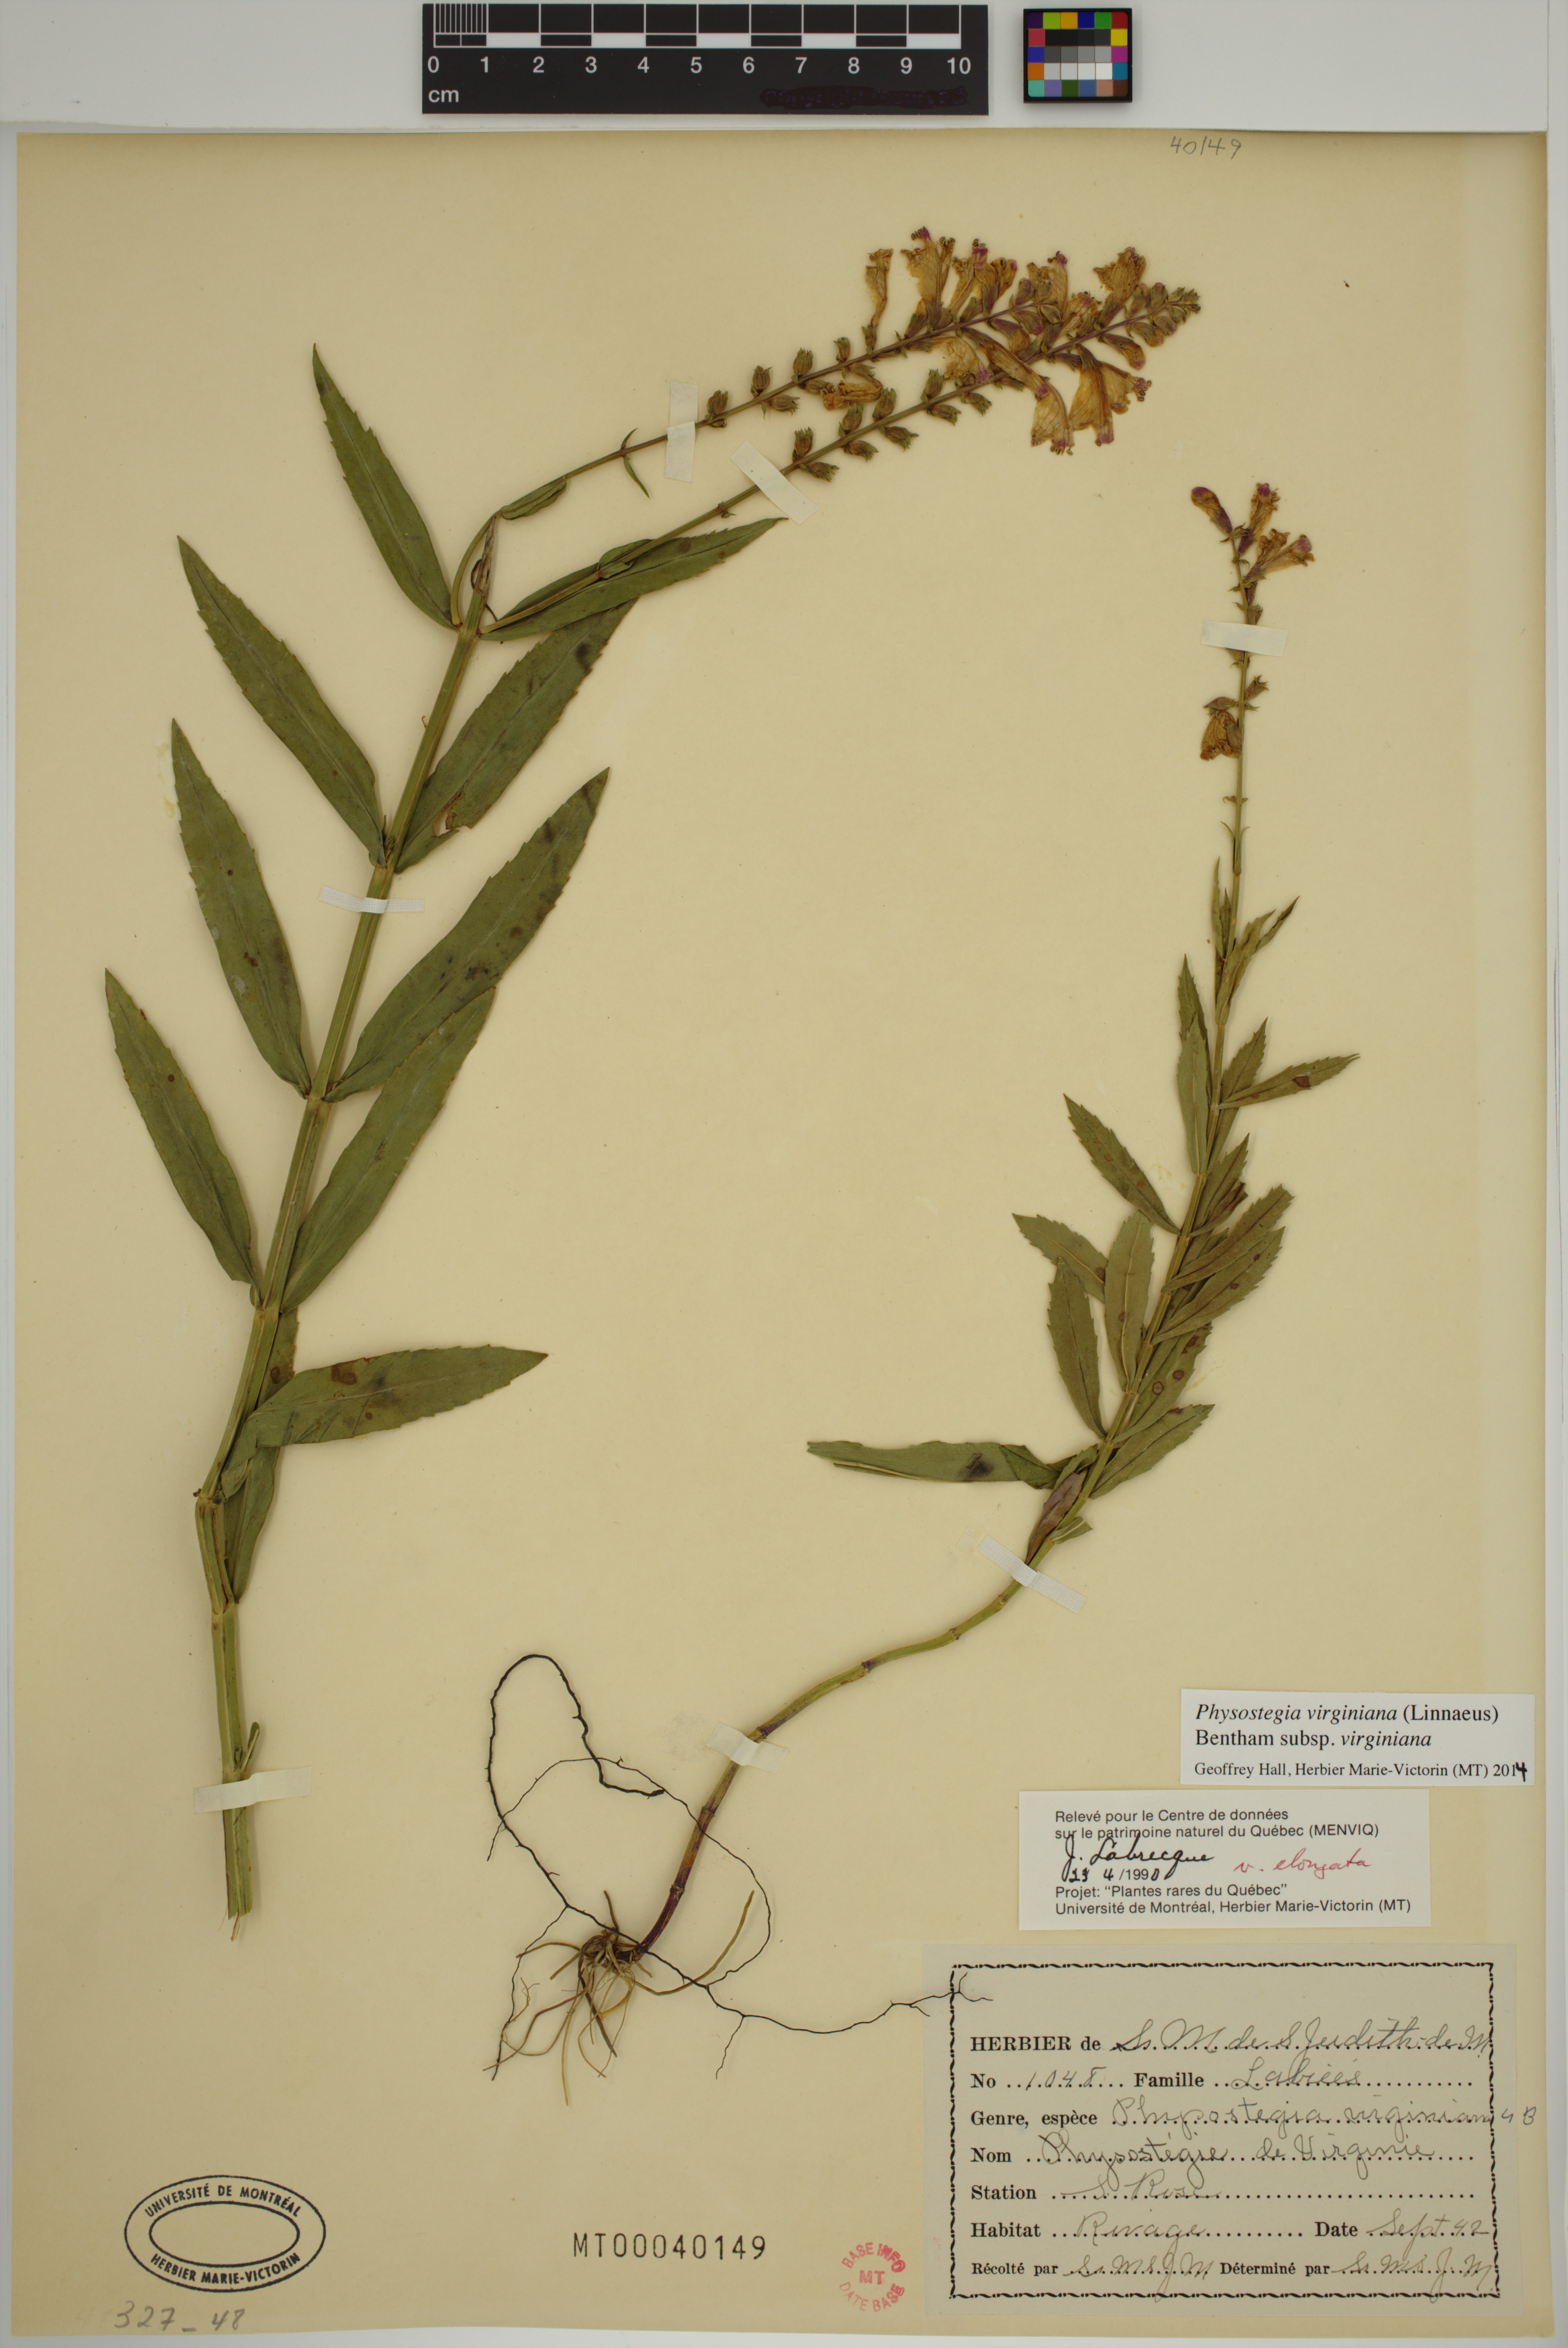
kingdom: Plantae
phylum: Tracheophyta
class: Magnoliopsida
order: Lamiales
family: Lamiaceae
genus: Physostegia
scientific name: Physostegia virginiana
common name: Obedient-plant
